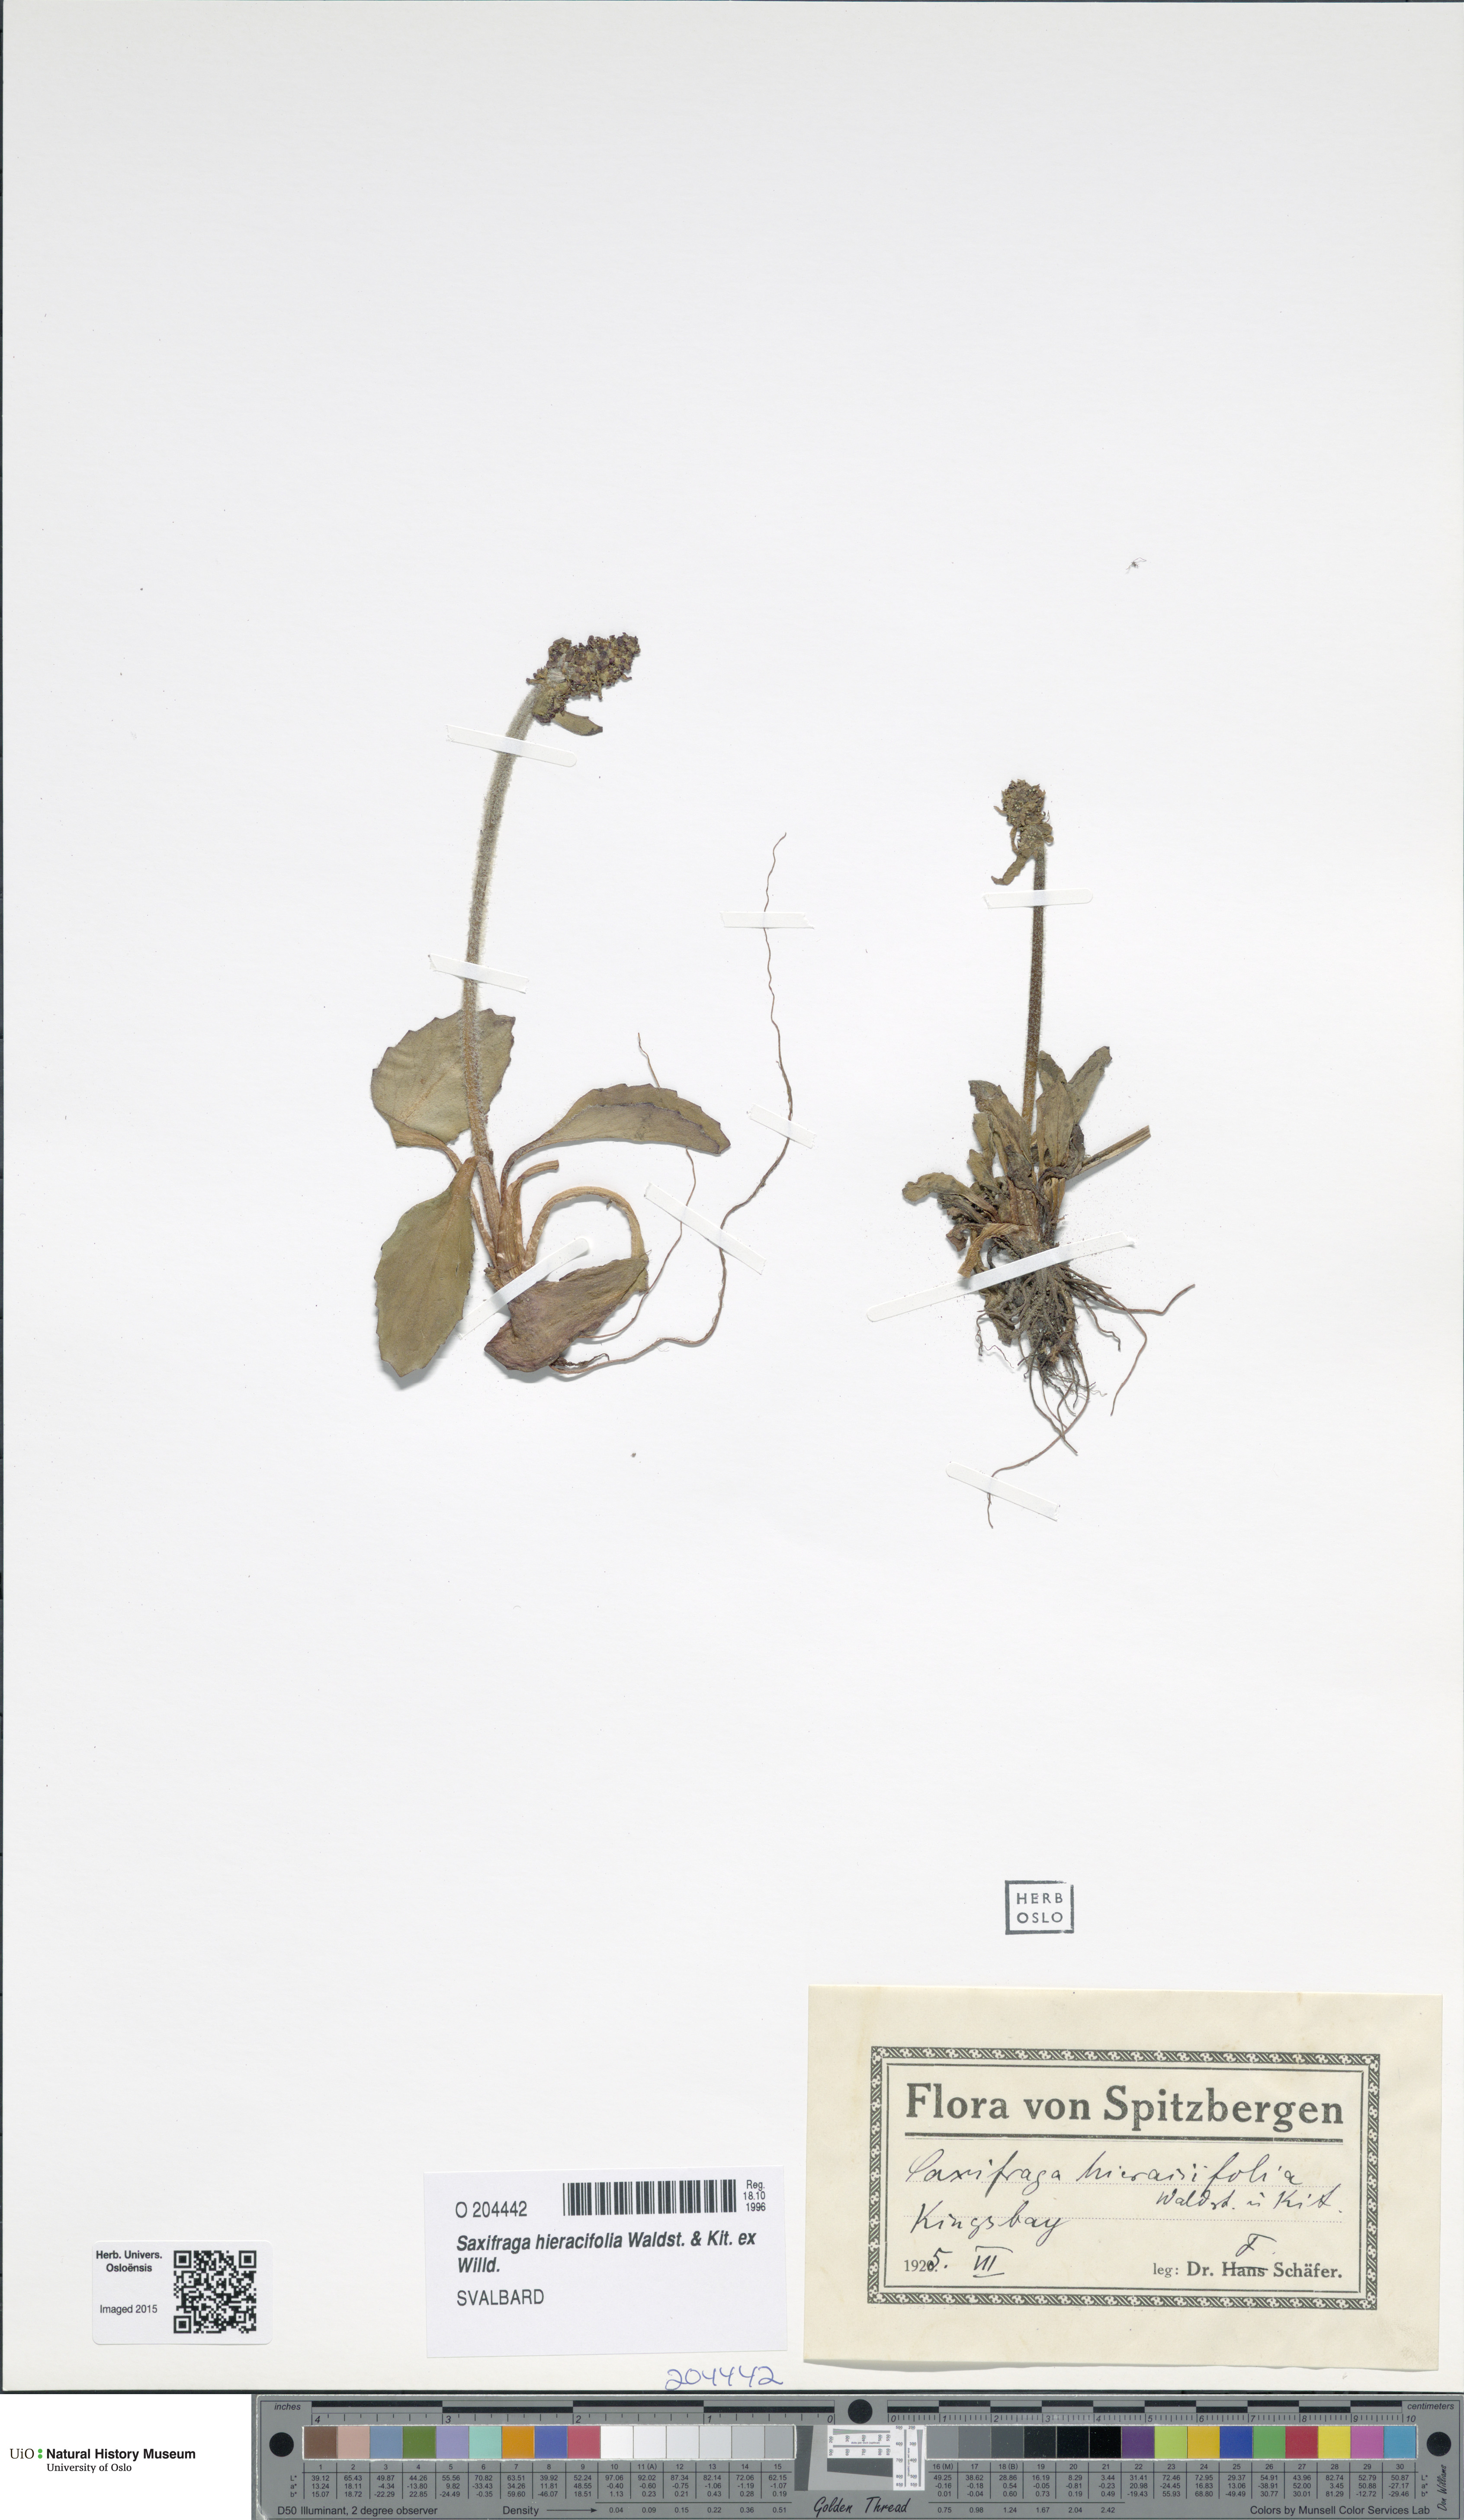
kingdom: Plantae
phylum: Tracheophyta
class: Magnoliopsida
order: Saxifragales
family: Saxifragaceae
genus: Micranthes
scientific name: Micranthes hieraciifolia
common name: Hawkweed-leaved saxifrage
